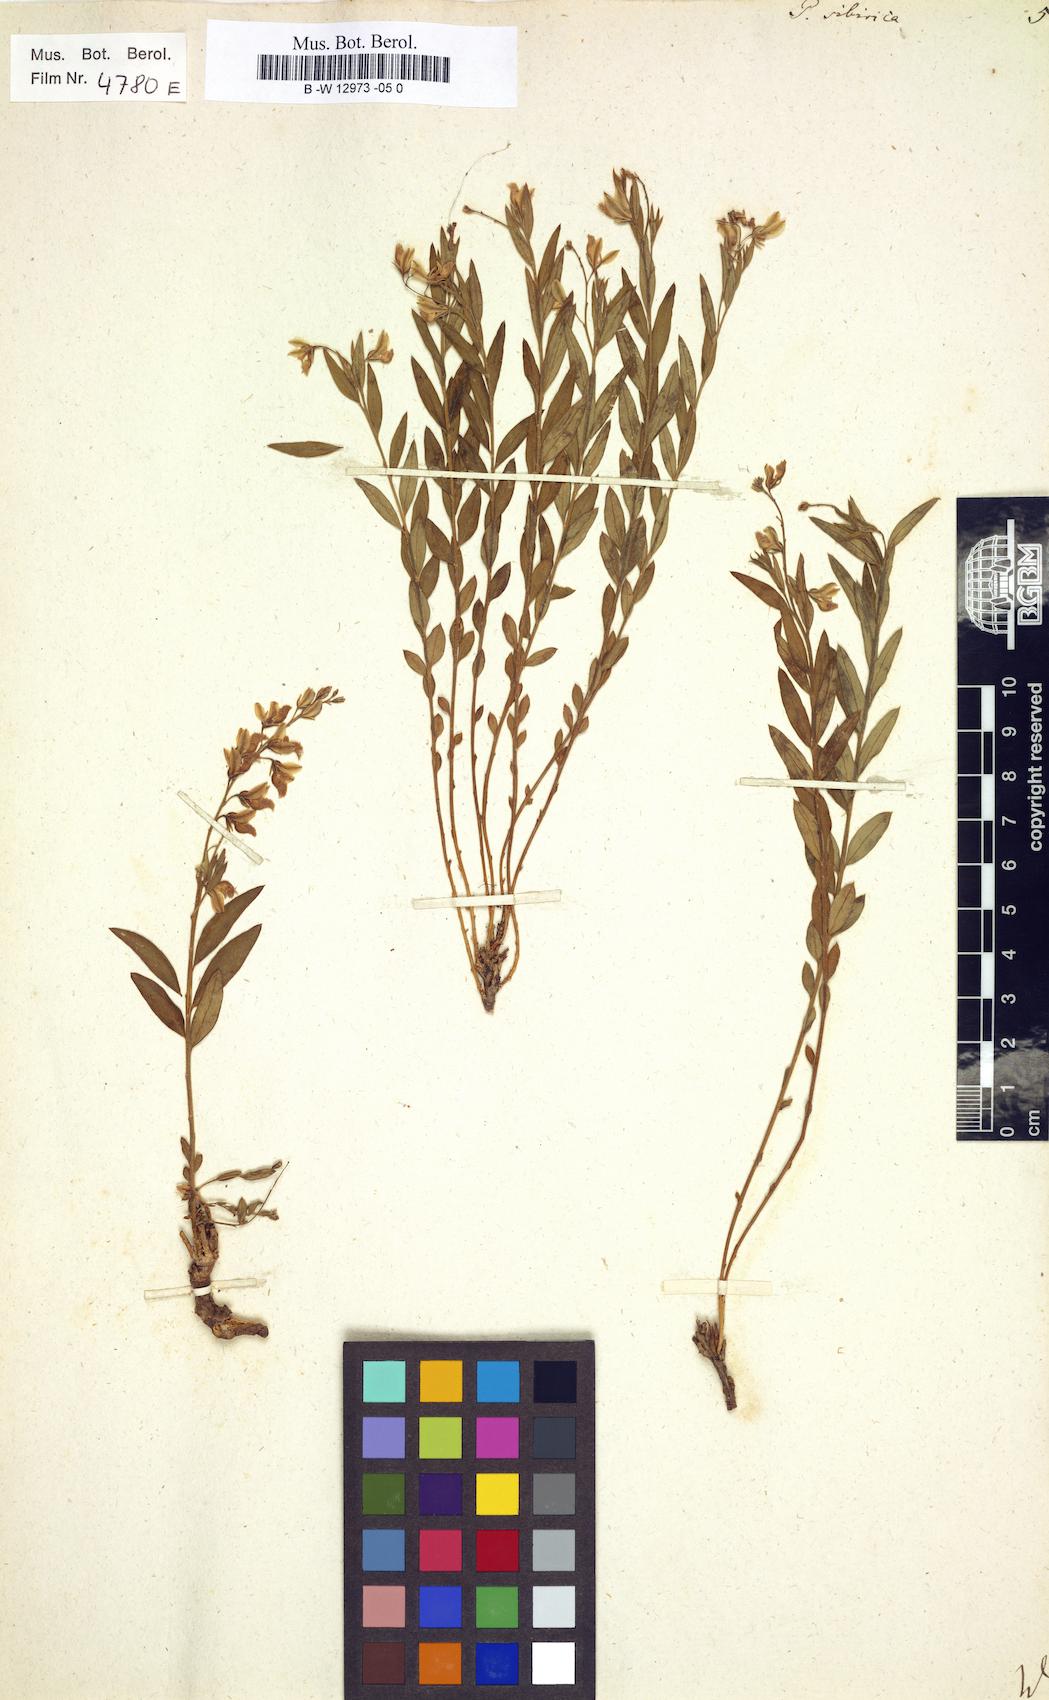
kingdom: Plantae
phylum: Tracheophyta
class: Magnoliopsida
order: Fabales
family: Polygalaceae
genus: Polygala
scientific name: Polygala sibirica
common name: Siberian polygala
